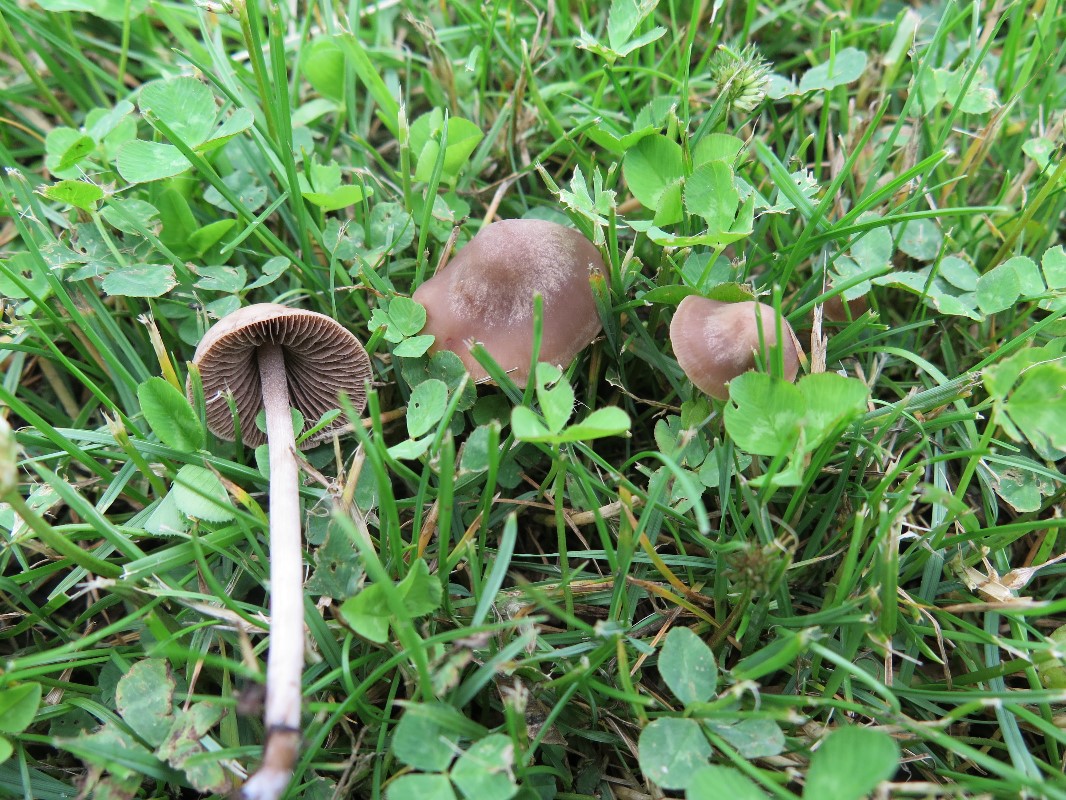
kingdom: Fungi
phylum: Basidiomycota
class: Agaricomycetes
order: Agaricales
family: Bolbitiaceae
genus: Panaeolina
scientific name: Panaeolina foenisecii
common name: høslætsvamp
